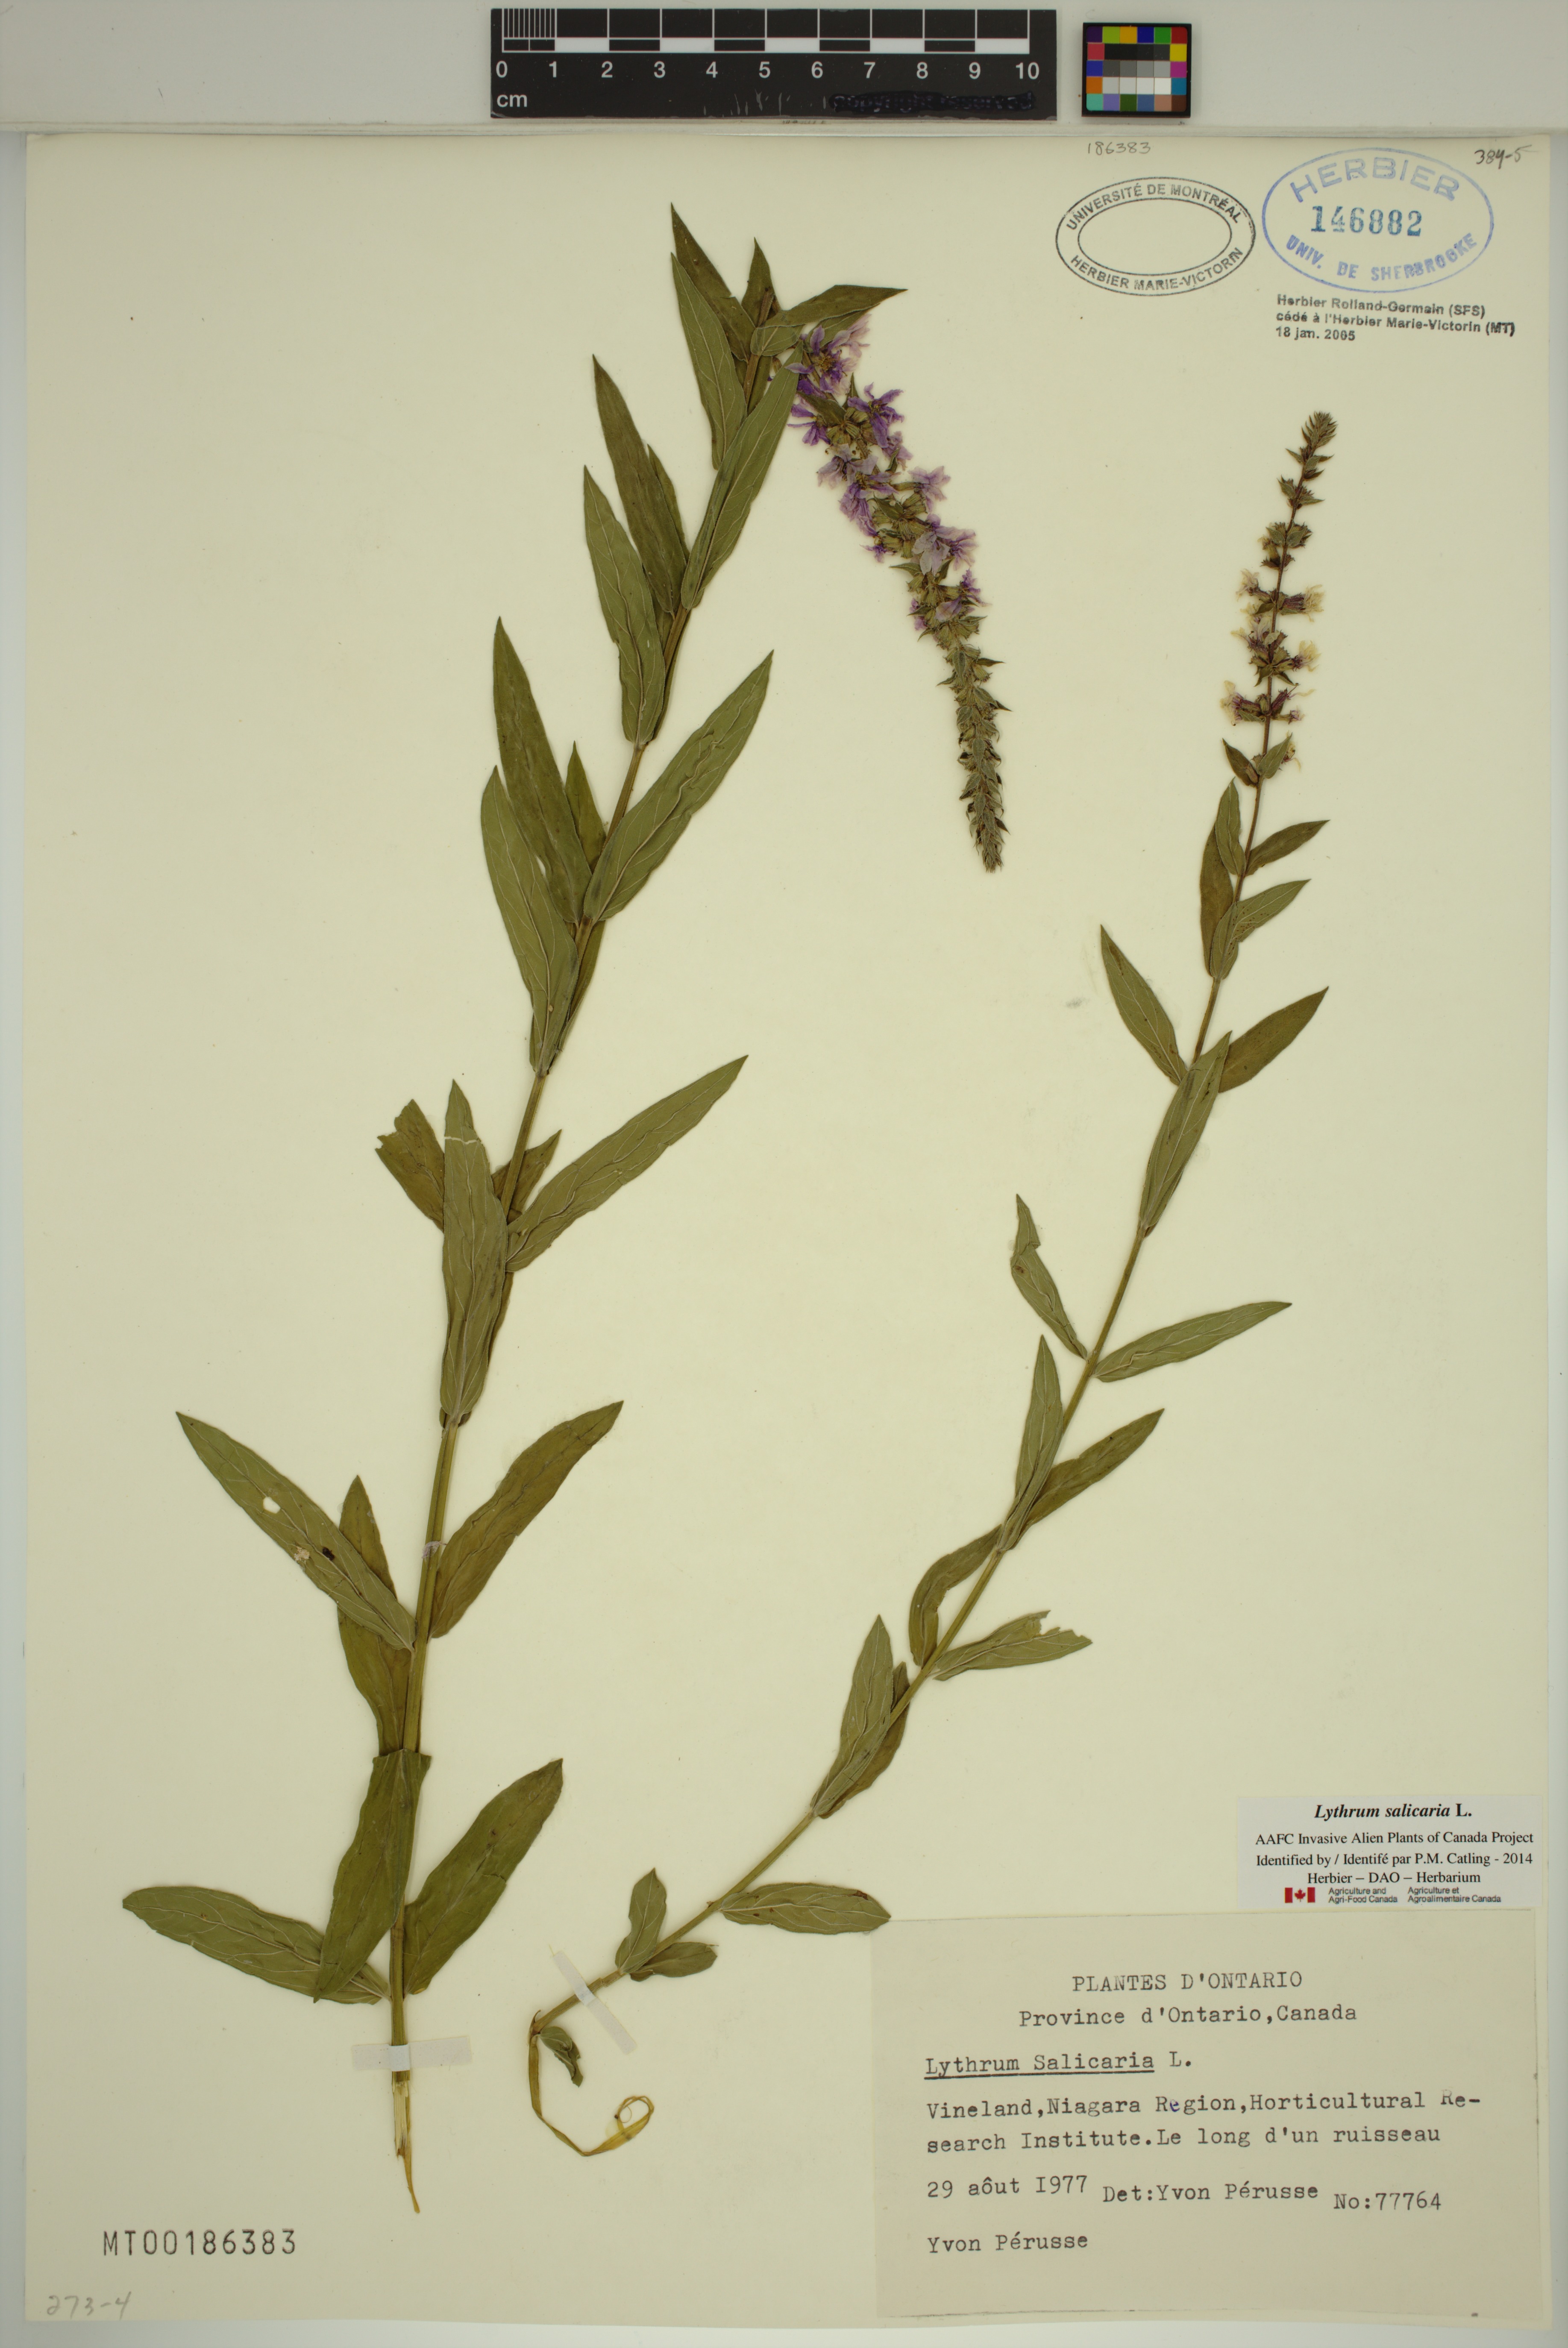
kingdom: Plantae
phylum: Tracheophyta
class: Magnoliopsida
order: Myrtales
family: Lythraceae
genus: Lythrum
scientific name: Lythrum salicaria
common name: Purple loosestrife
